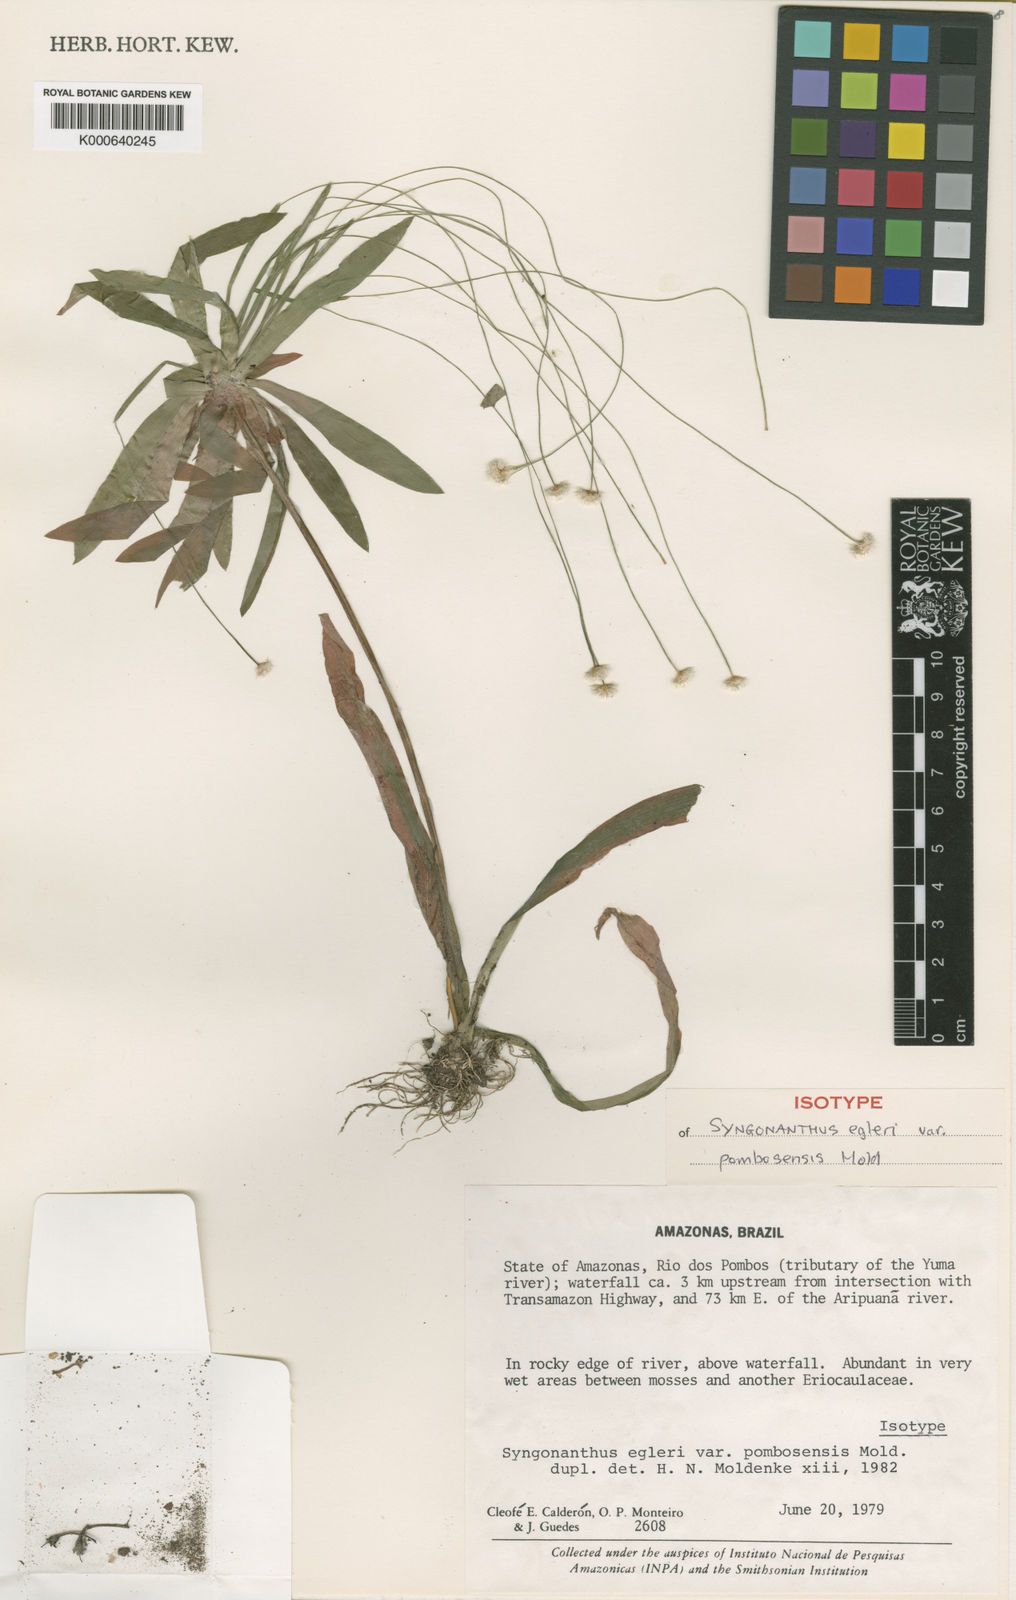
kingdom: Plantae
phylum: Tracheophyta
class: Liliopsida
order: Poales
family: Eriocaulaceae
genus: Syngonanthus
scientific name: Syngonanthus egleri
